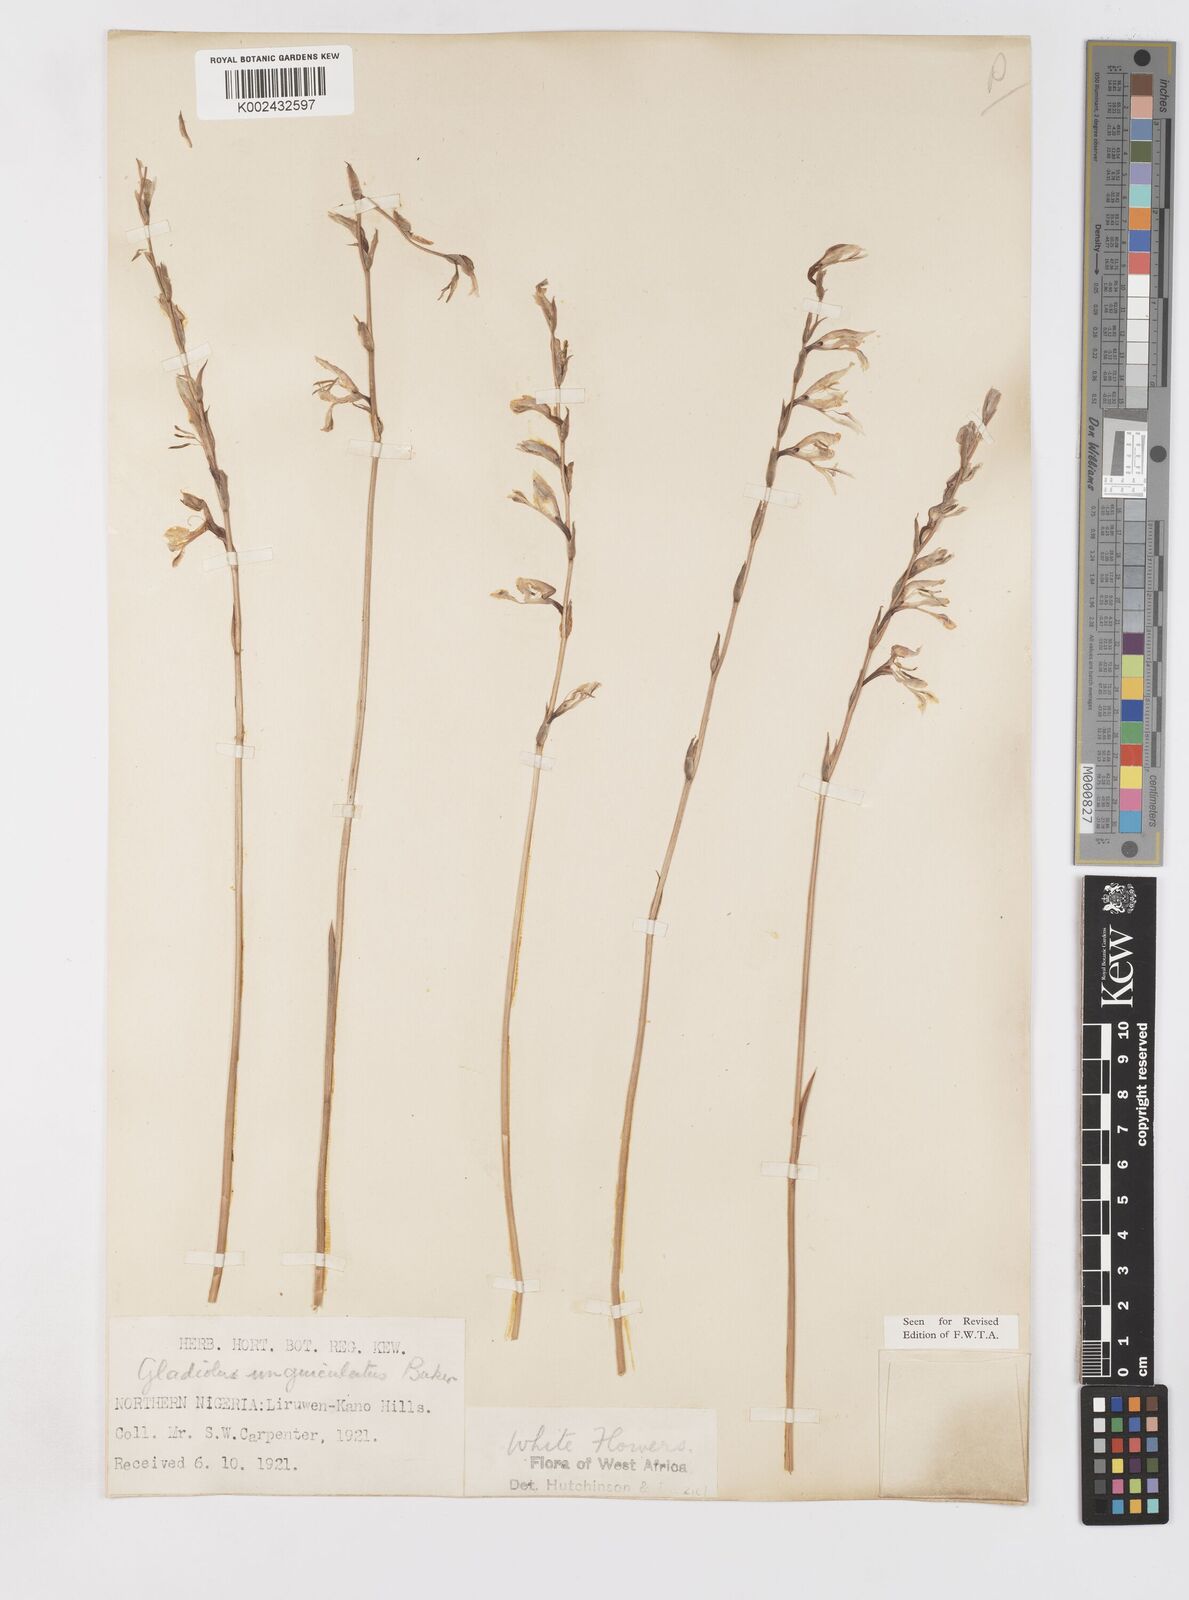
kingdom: Plantae
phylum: Tracheophyta
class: Liliopsida
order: Asparagales
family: Iridaceae
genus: Gladiolus
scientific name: Gladiolus unguiculatus
